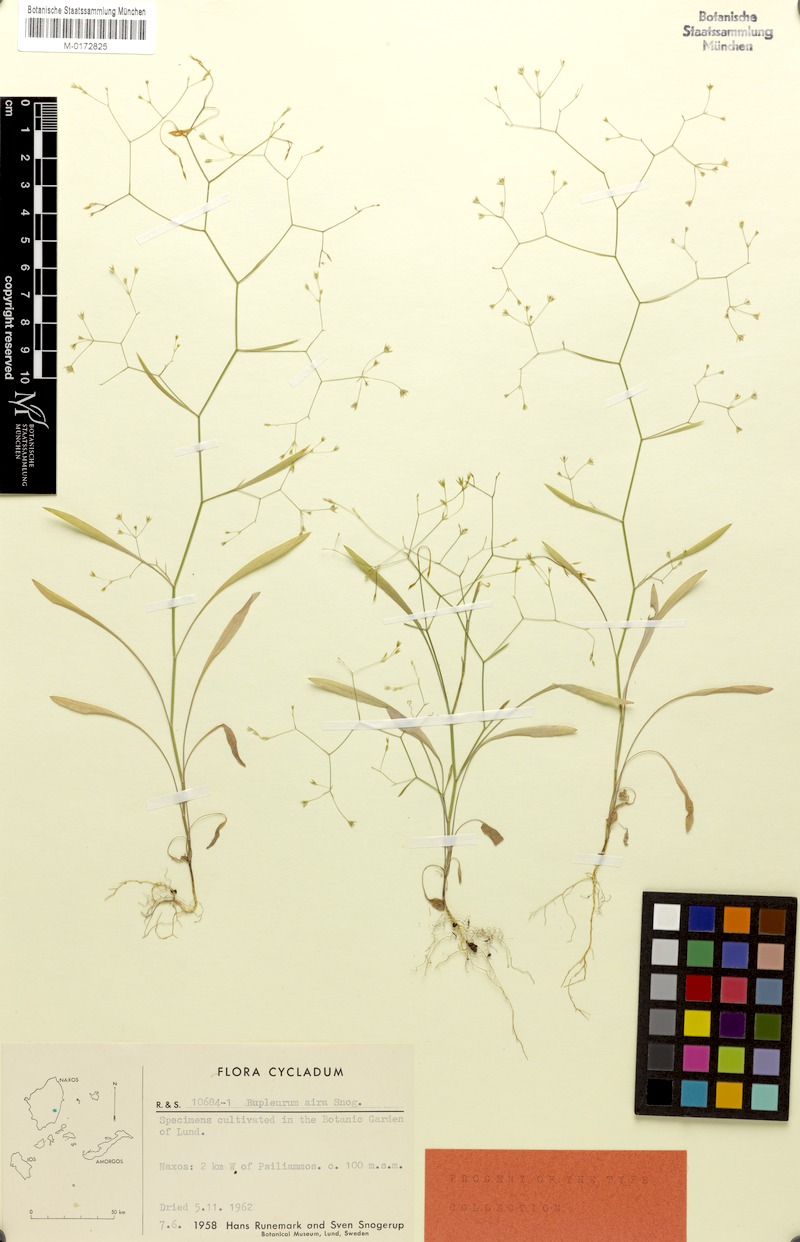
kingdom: Plantae
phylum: Tracheophyta
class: Magnoliopsida
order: Apiales
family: Apiaceae
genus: Bupleurum
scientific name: Bupleurum aira
